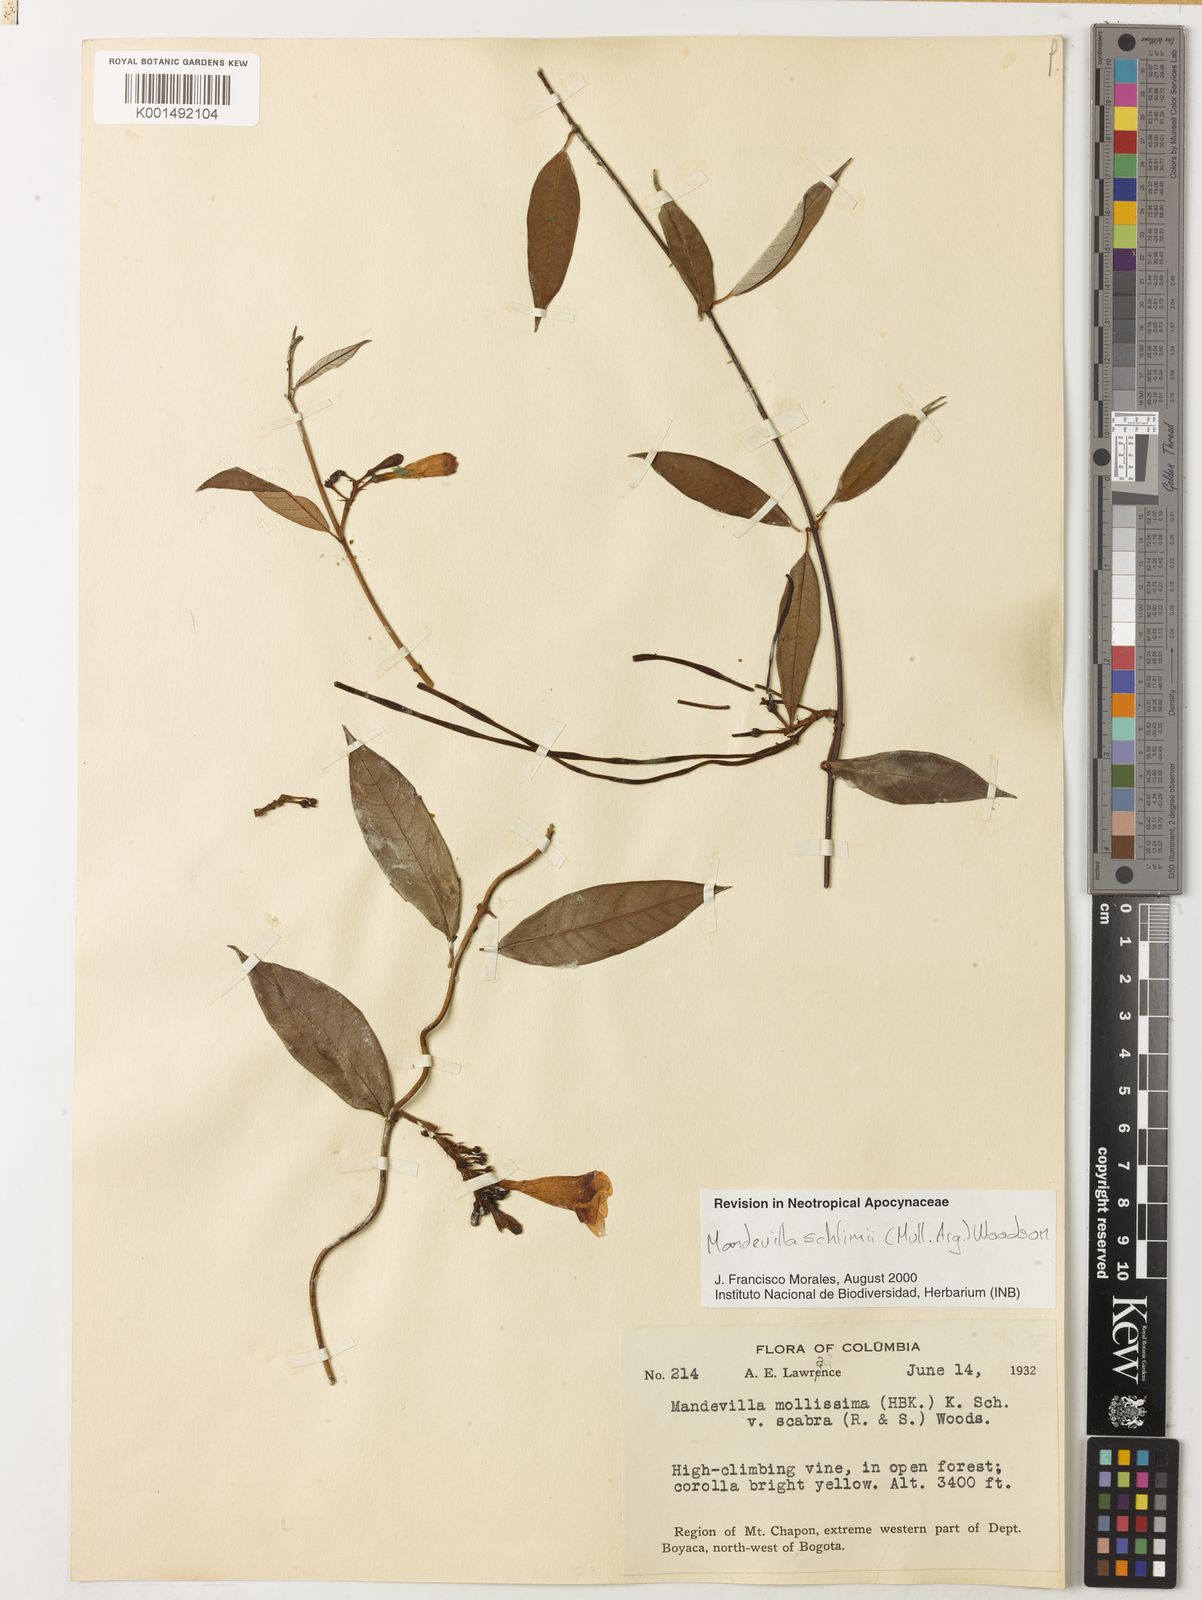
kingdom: Plantae
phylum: Tracheophyta
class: Magnoliopsida
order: Gentianales
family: Apocynaceae
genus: Mandevilla
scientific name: Mandevilla schlimii
